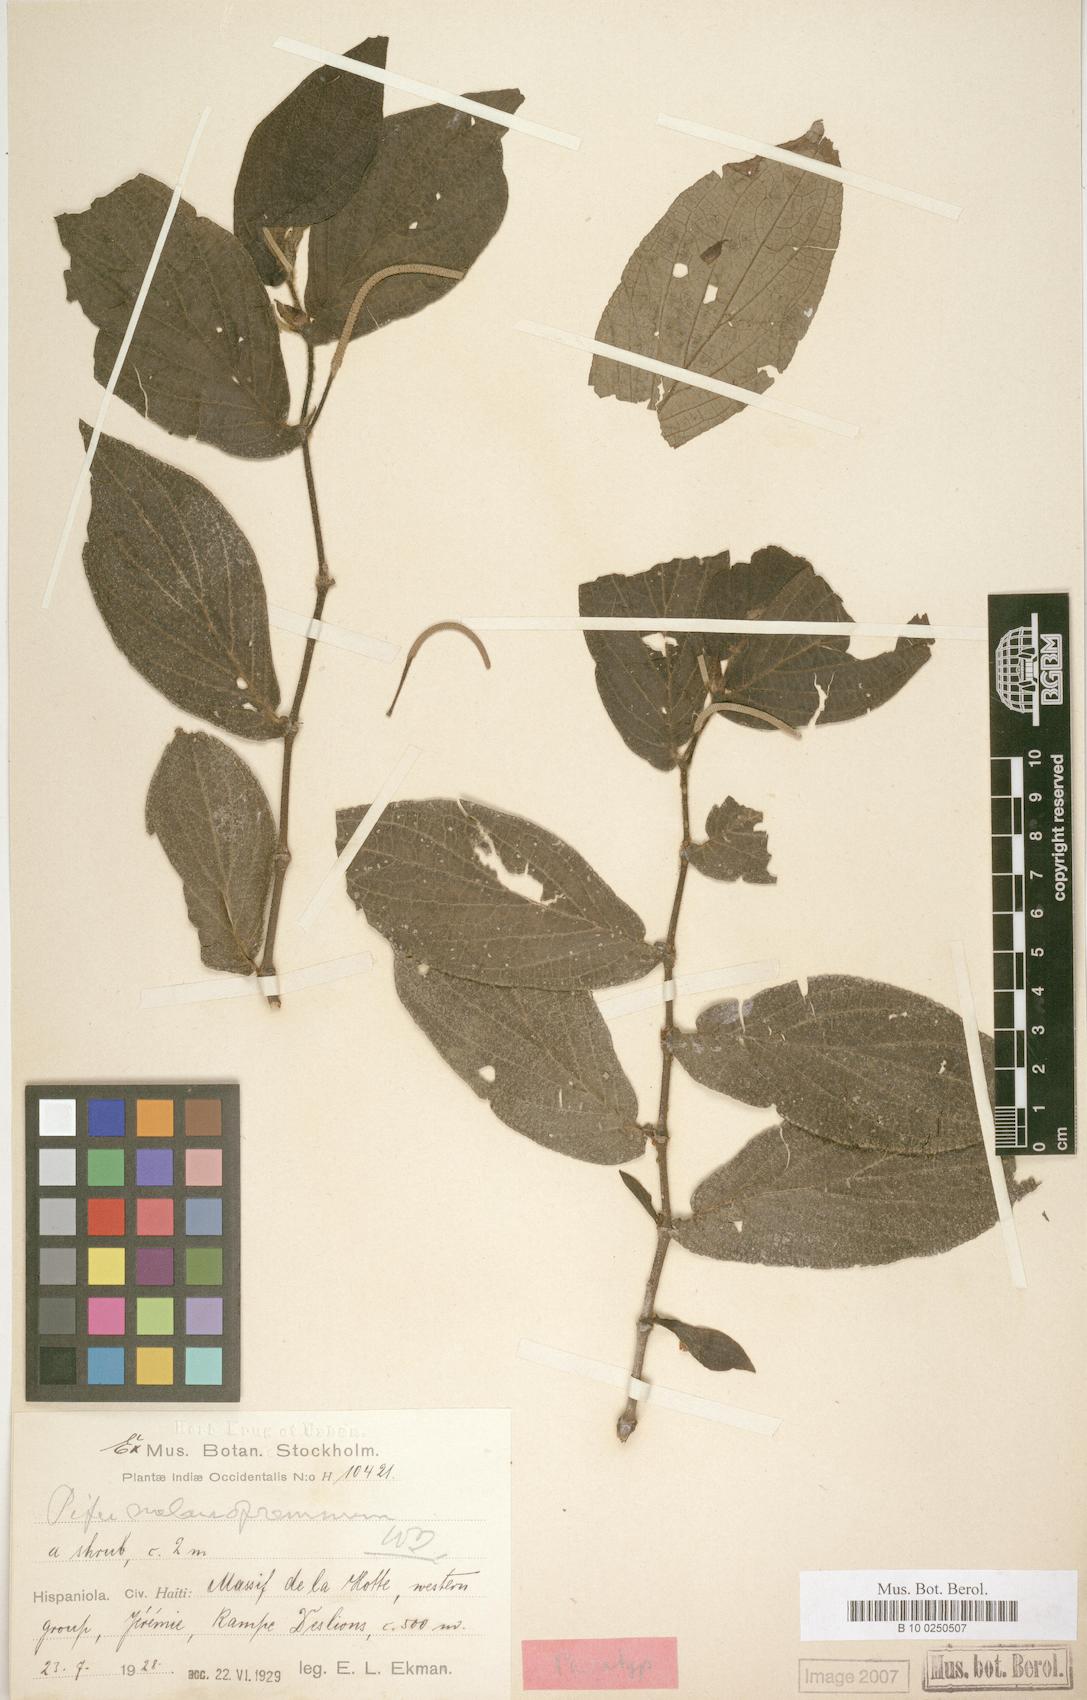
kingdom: Plantae
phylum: Tracheophyta
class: Magnoliopsida
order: Piperales
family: Piperaceae
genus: Piper
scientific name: Piper melanopremnum
